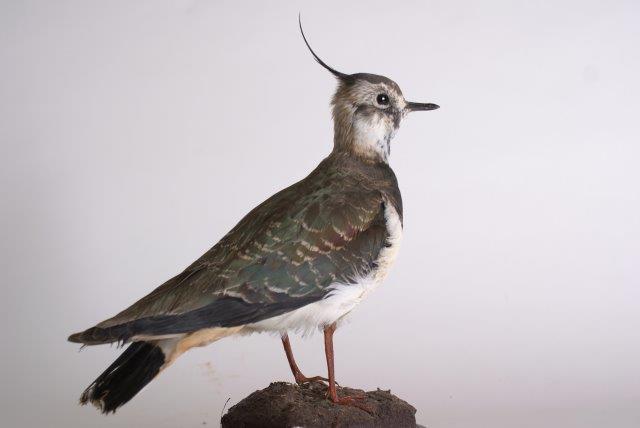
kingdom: Animalia
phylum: Chordata
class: Aves
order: Charadriiformes
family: Charadriidae
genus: Vanellus
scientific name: Vanellus vanellus
